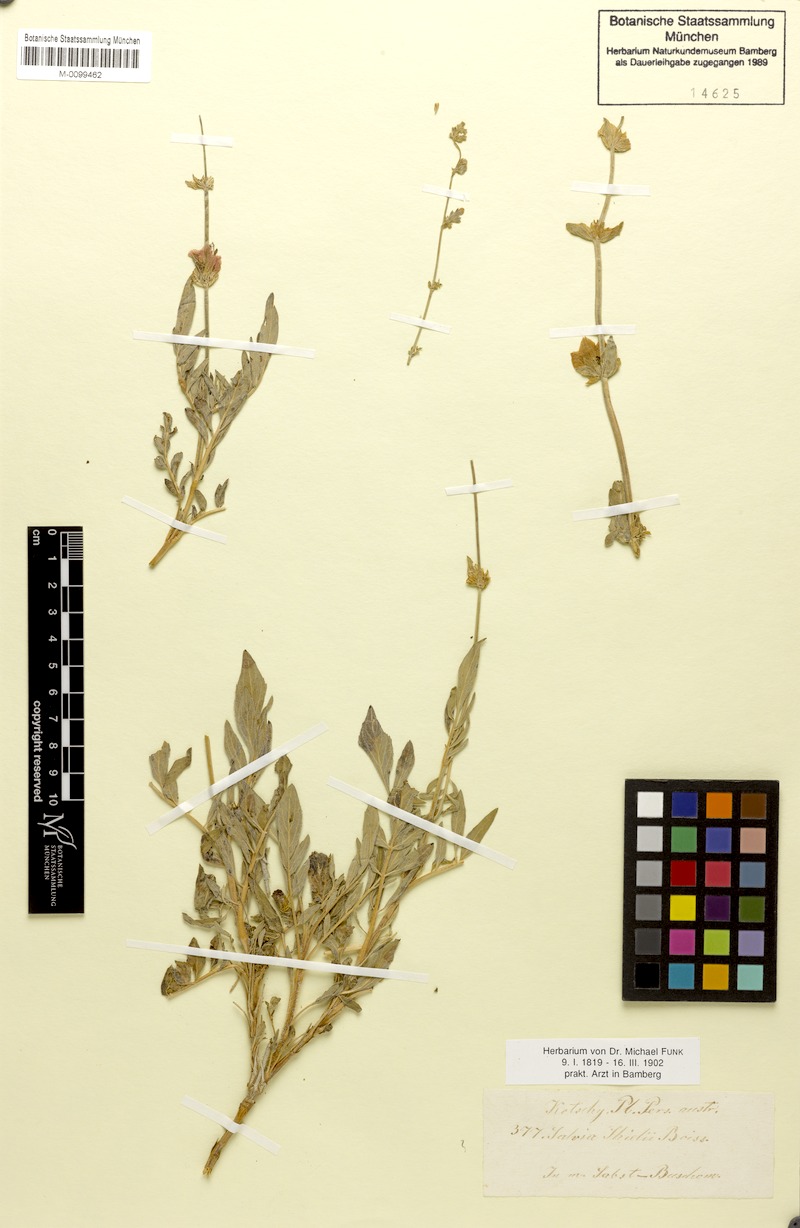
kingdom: Plantae
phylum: Tracheophyta
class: Magnoliopsida
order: Lamiales
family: Lamiaceae
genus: Salvia
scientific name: Salvia hydrangea
